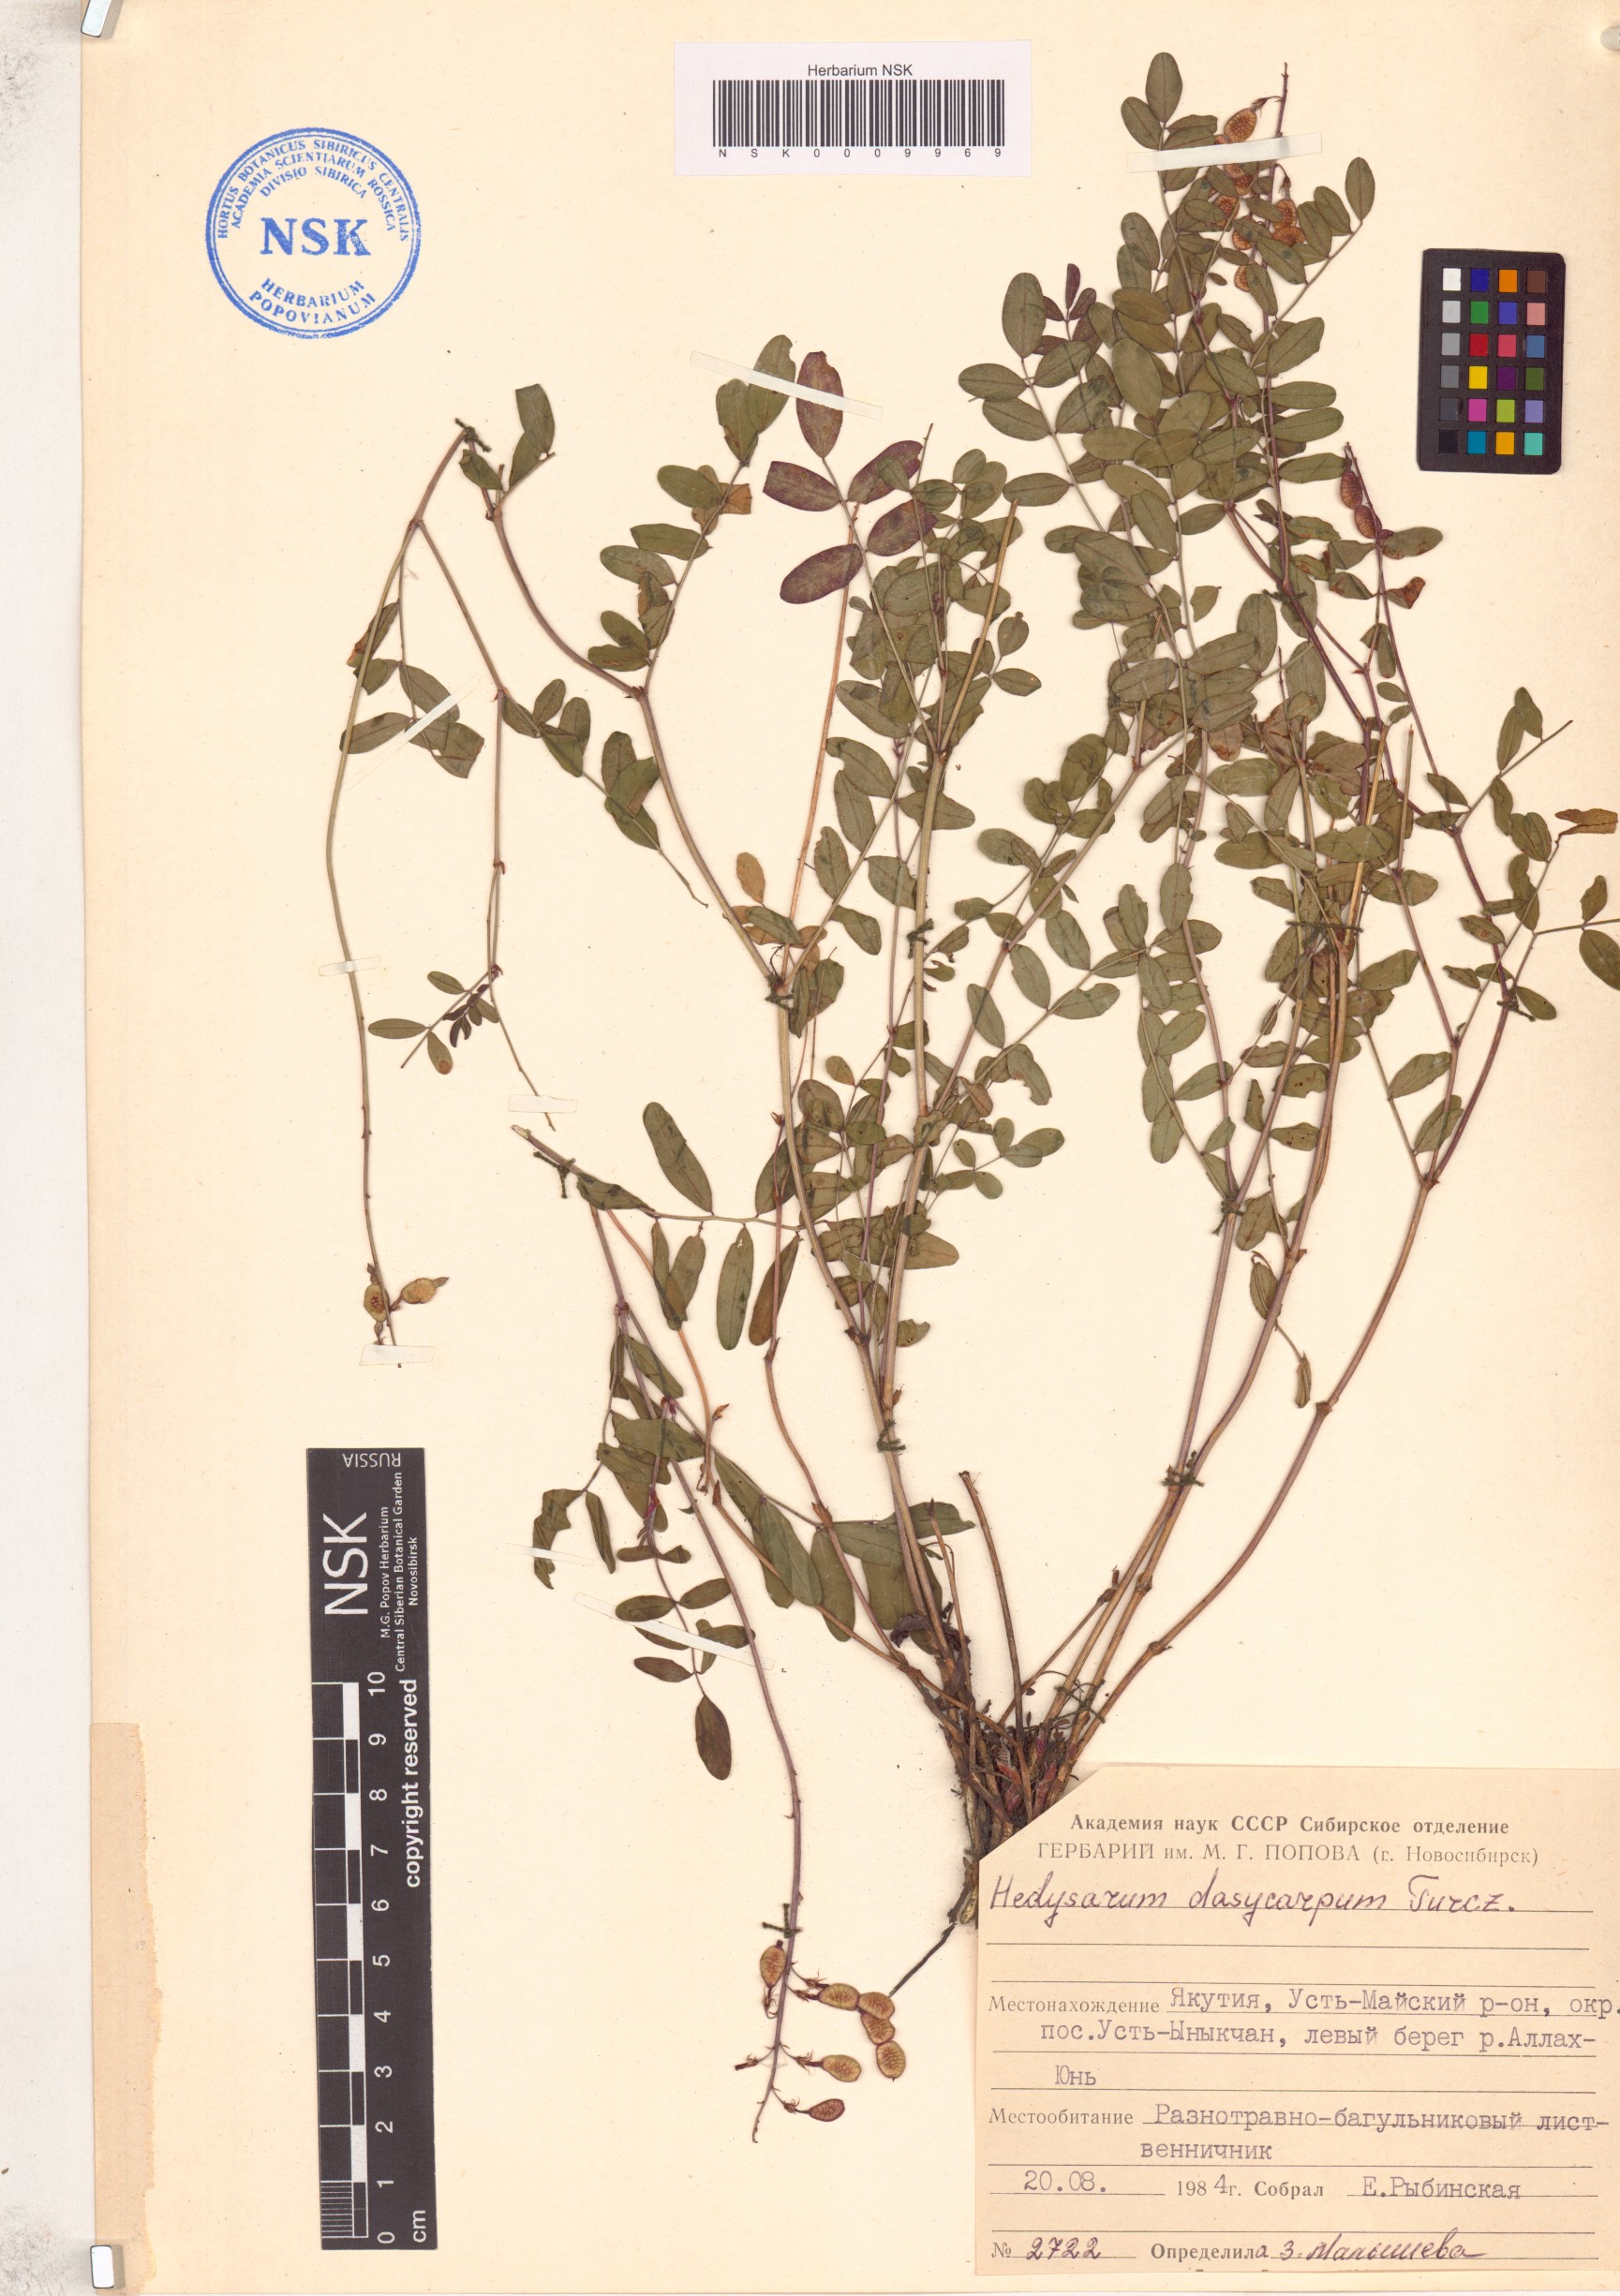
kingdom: Plantae
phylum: Tracheophyta
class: Magnoliopsida
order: Fabales
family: Fabaceae
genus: Hedysarum
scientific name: Hedysarum dasycarpum
